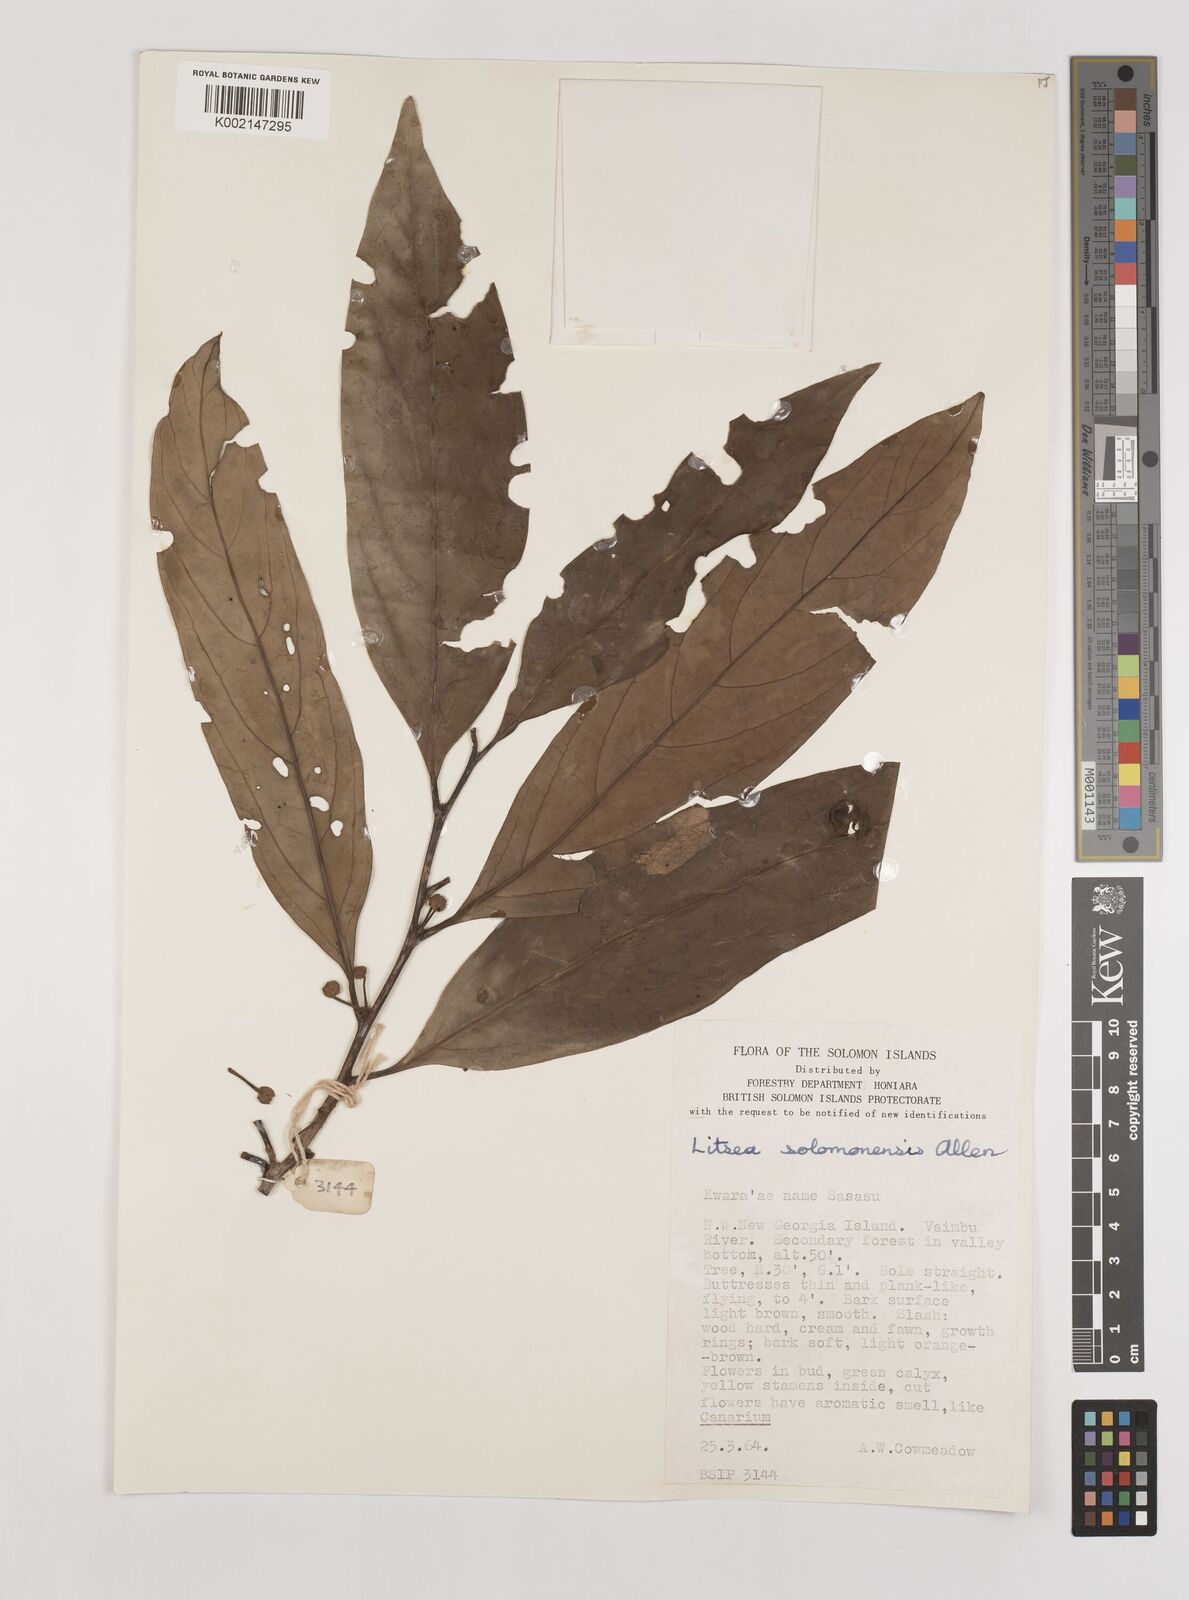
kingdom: Plantae
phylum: Tracheophyta
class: Magnoliopsida
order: Laurales
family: Lauraceae
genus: Litsea
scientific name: Litsea timoriana
